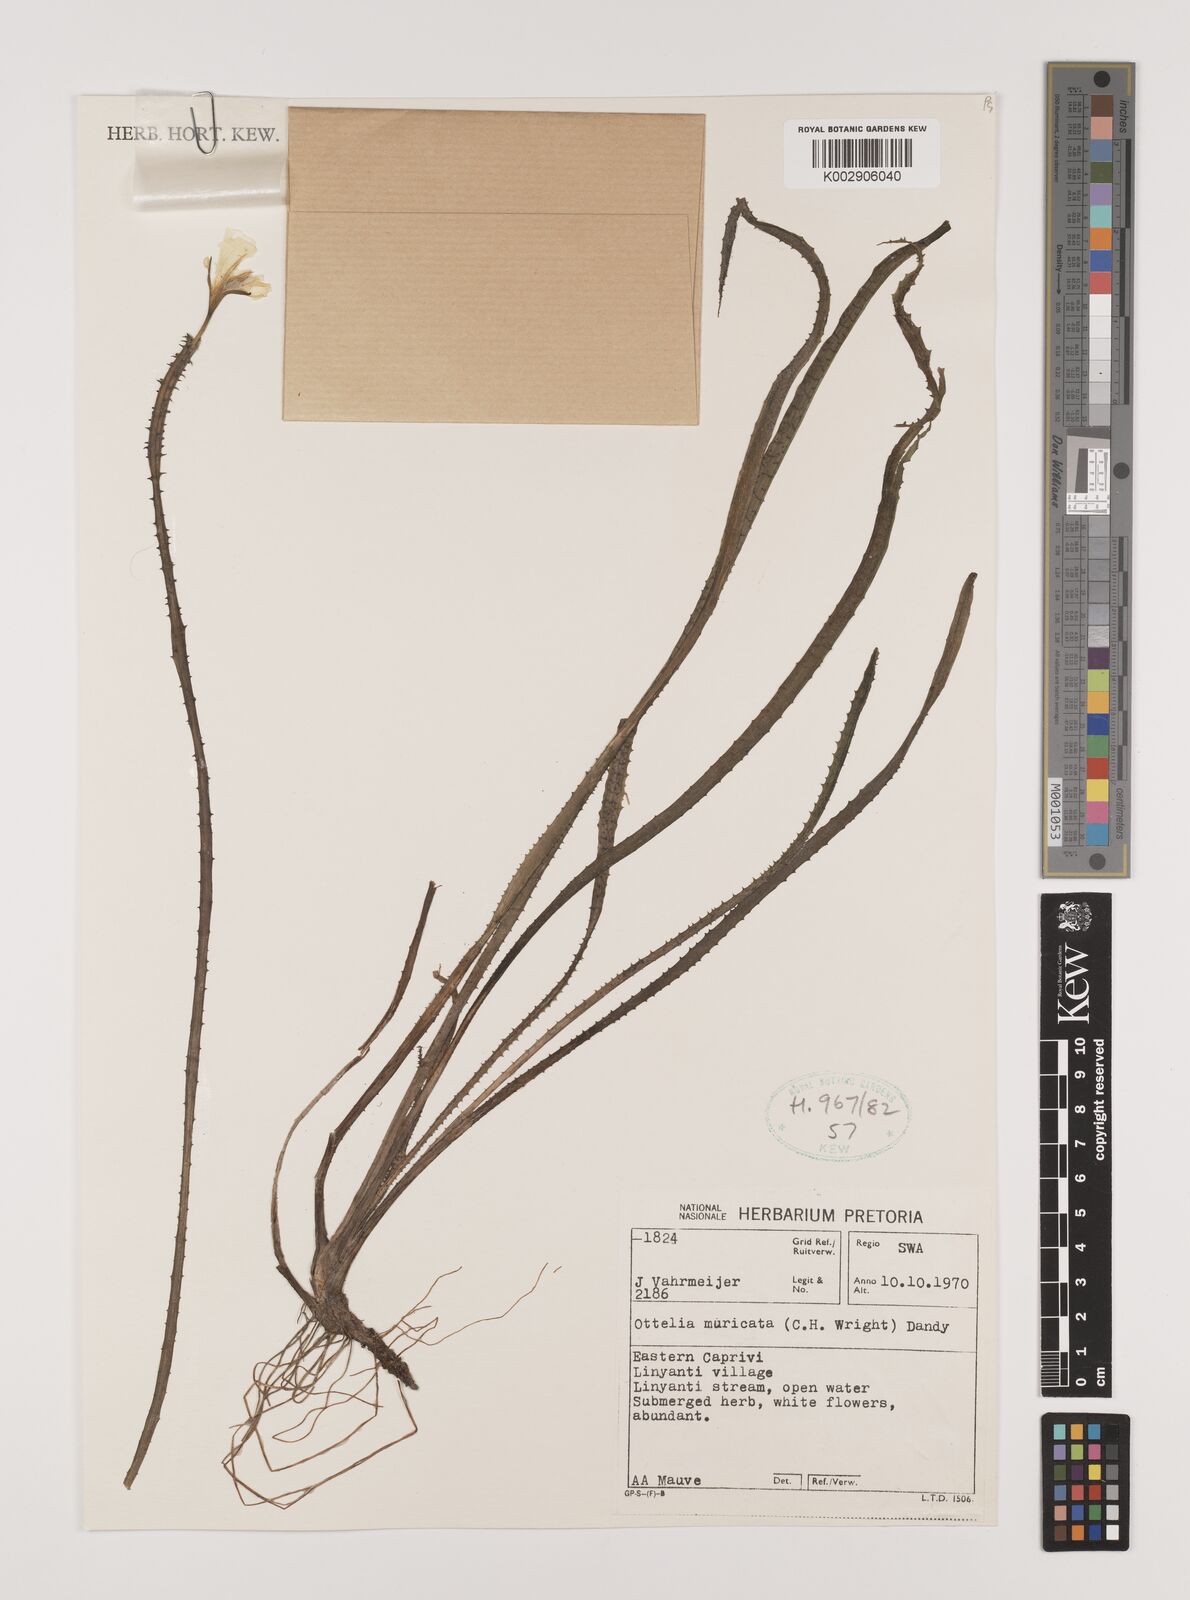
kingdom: Plantae
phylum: Tracheophyta
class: Liliopsida
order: Alismatales
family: Hydrocharitaceae
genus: Ottelia
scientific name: Ottelia muricata
